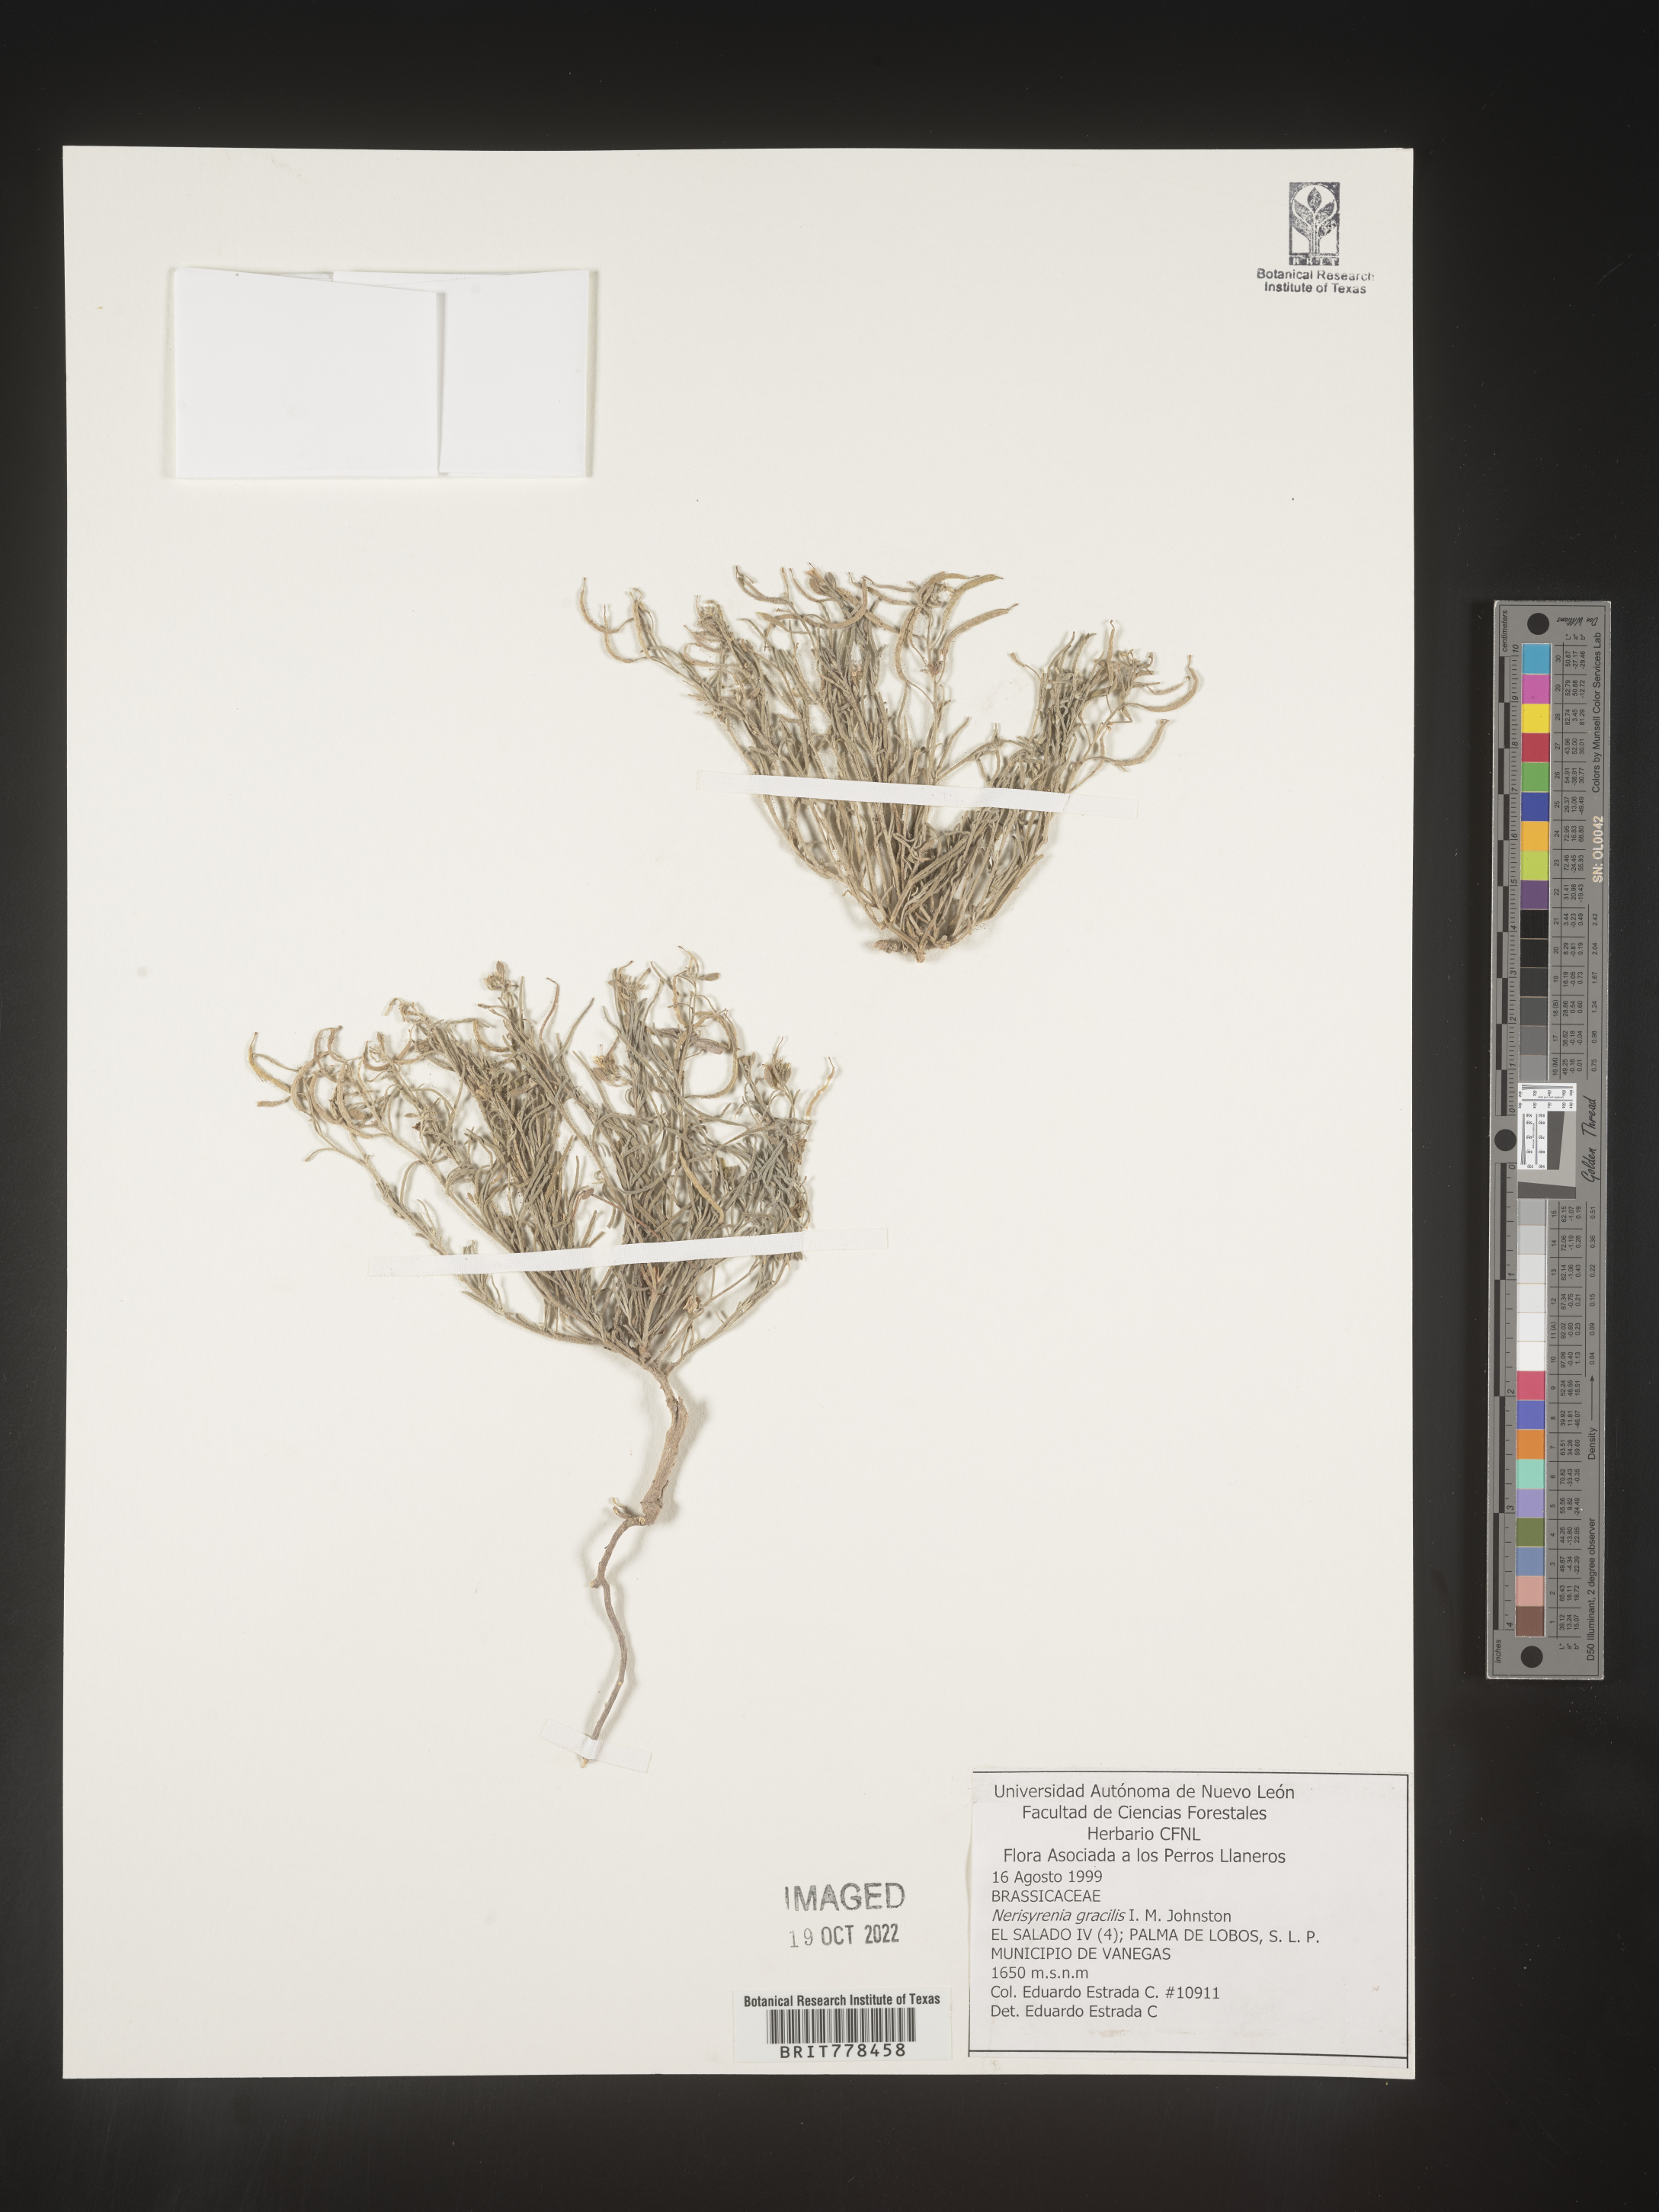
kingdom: Plantae
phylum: Tracheophyta
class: Magnoliopsida
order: Brassicales
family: Brassicaceae
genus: Nerisyrenia
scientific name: Nerisyrenia
